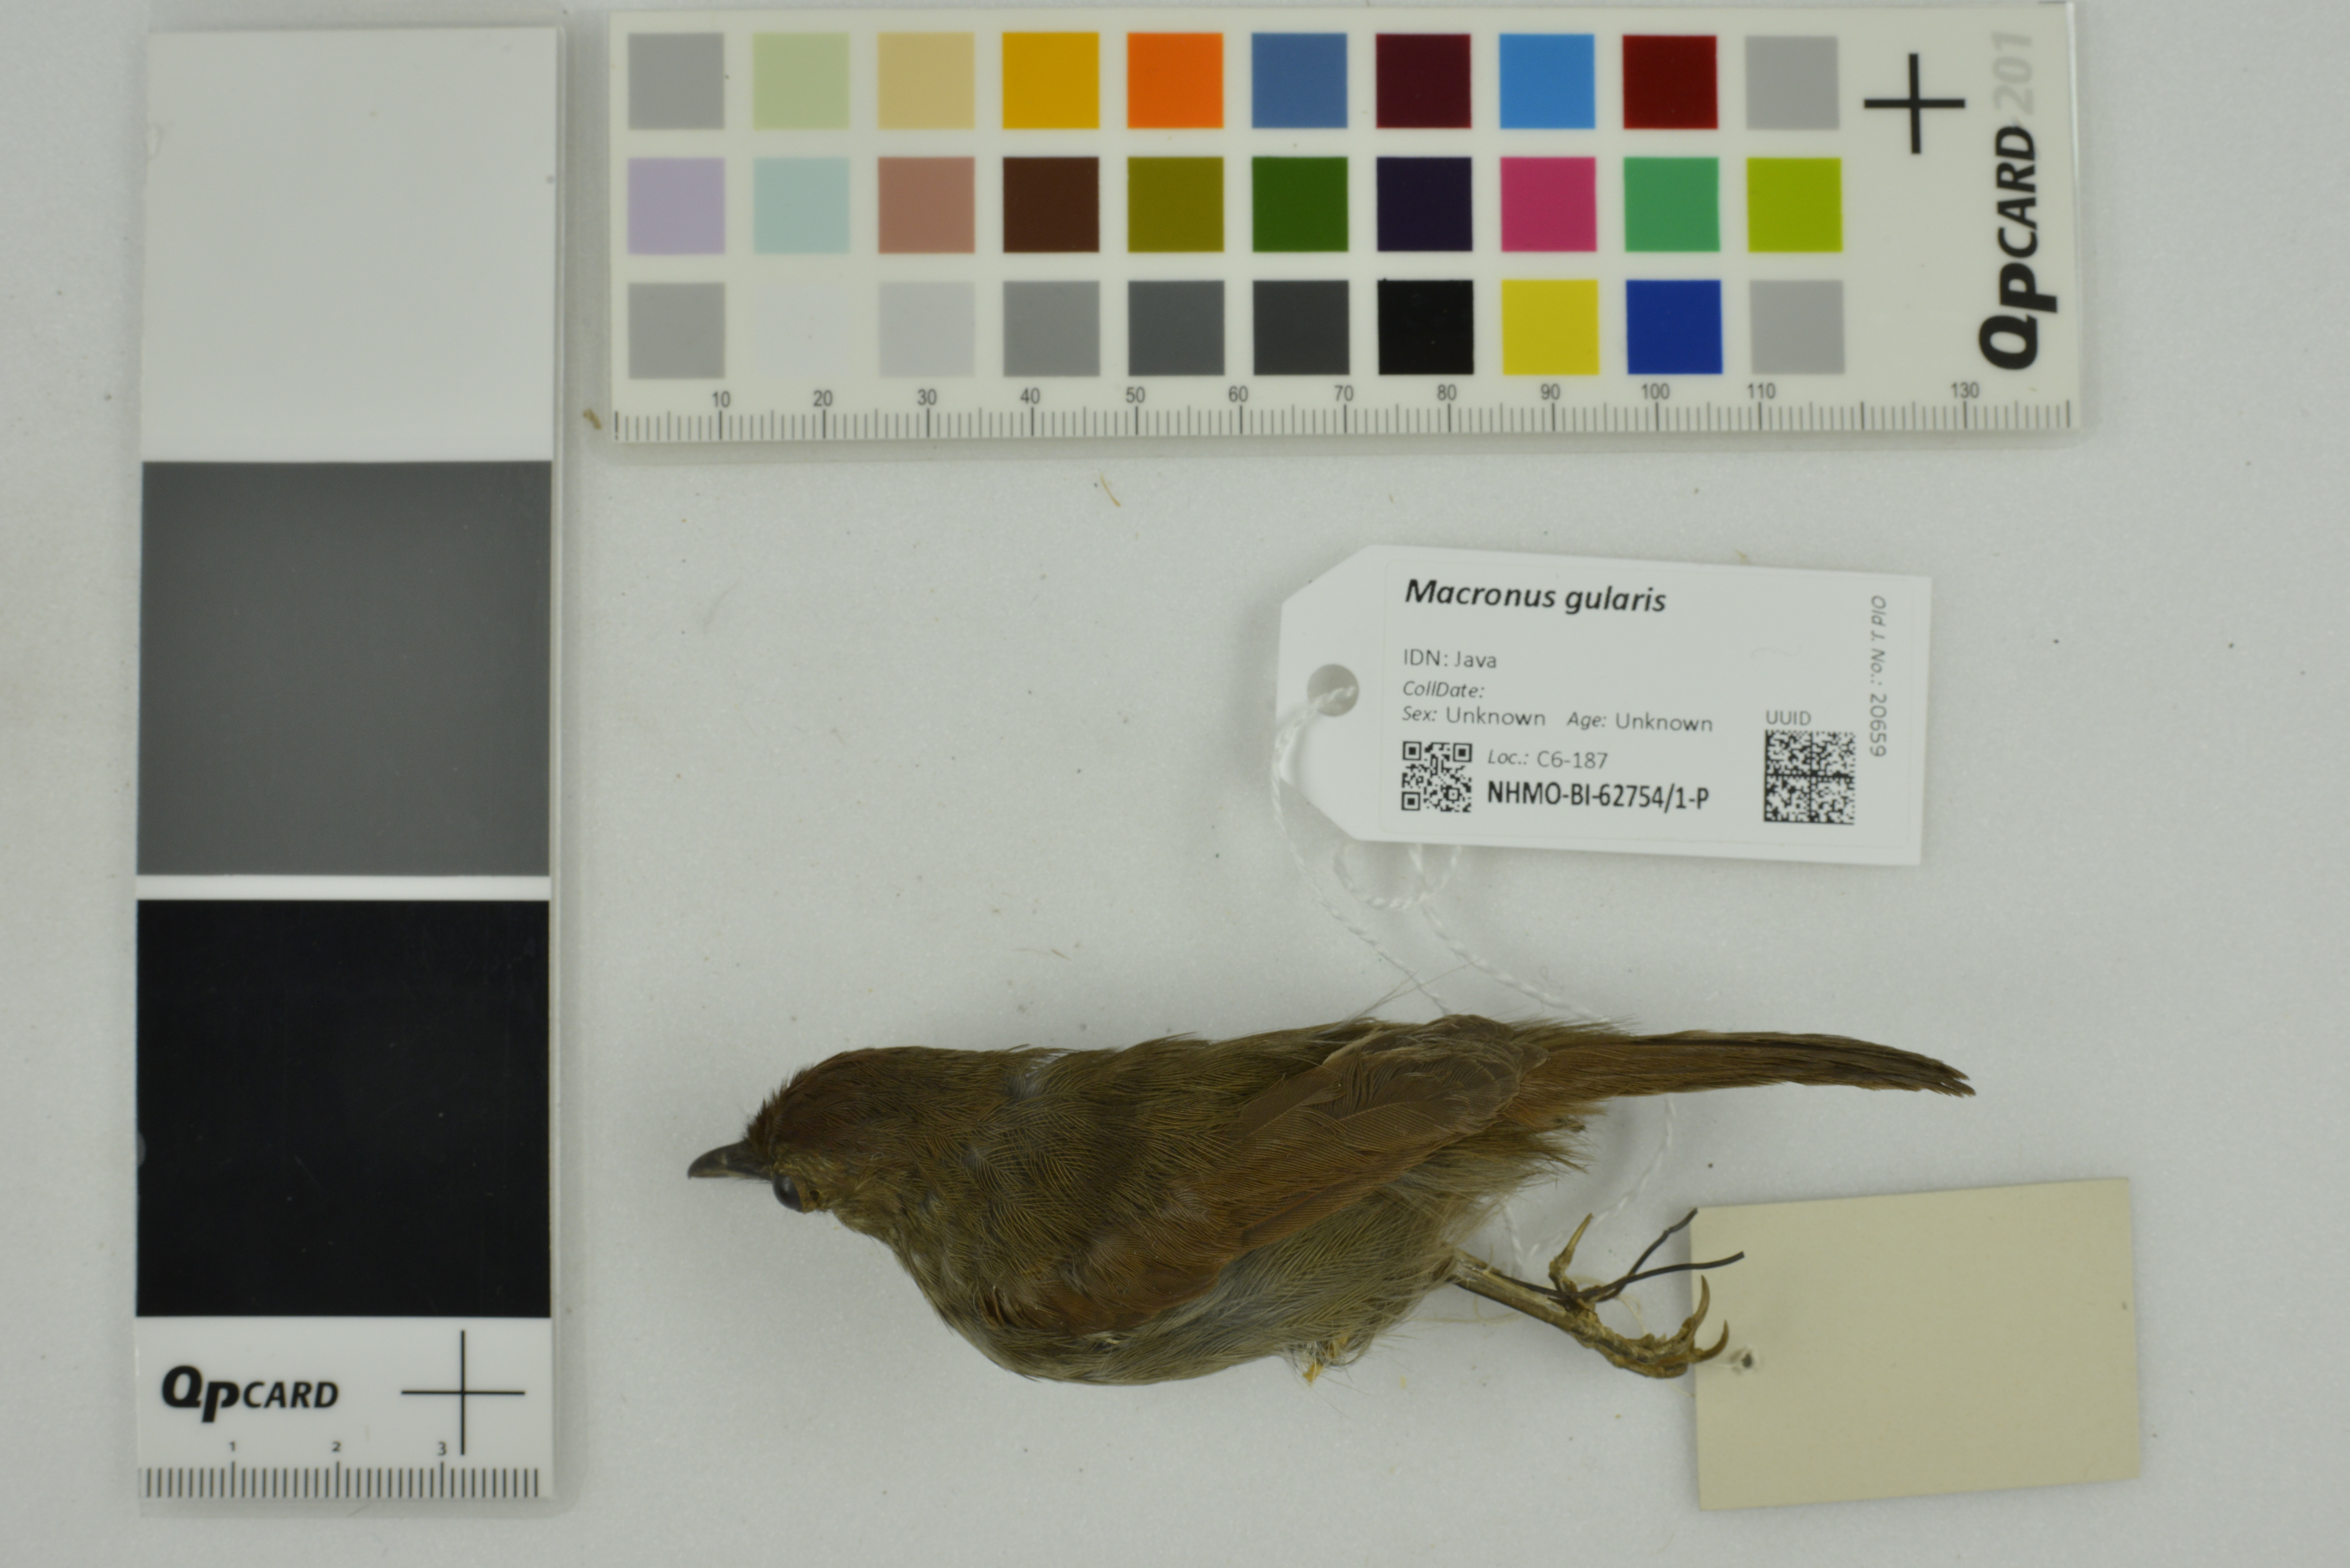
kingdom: Animalia
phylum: Chordata
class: Aves
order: Passeriformes
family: Timaliidae
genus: Macronus
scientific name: Macronus gularis
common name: Striped tit-babbler
